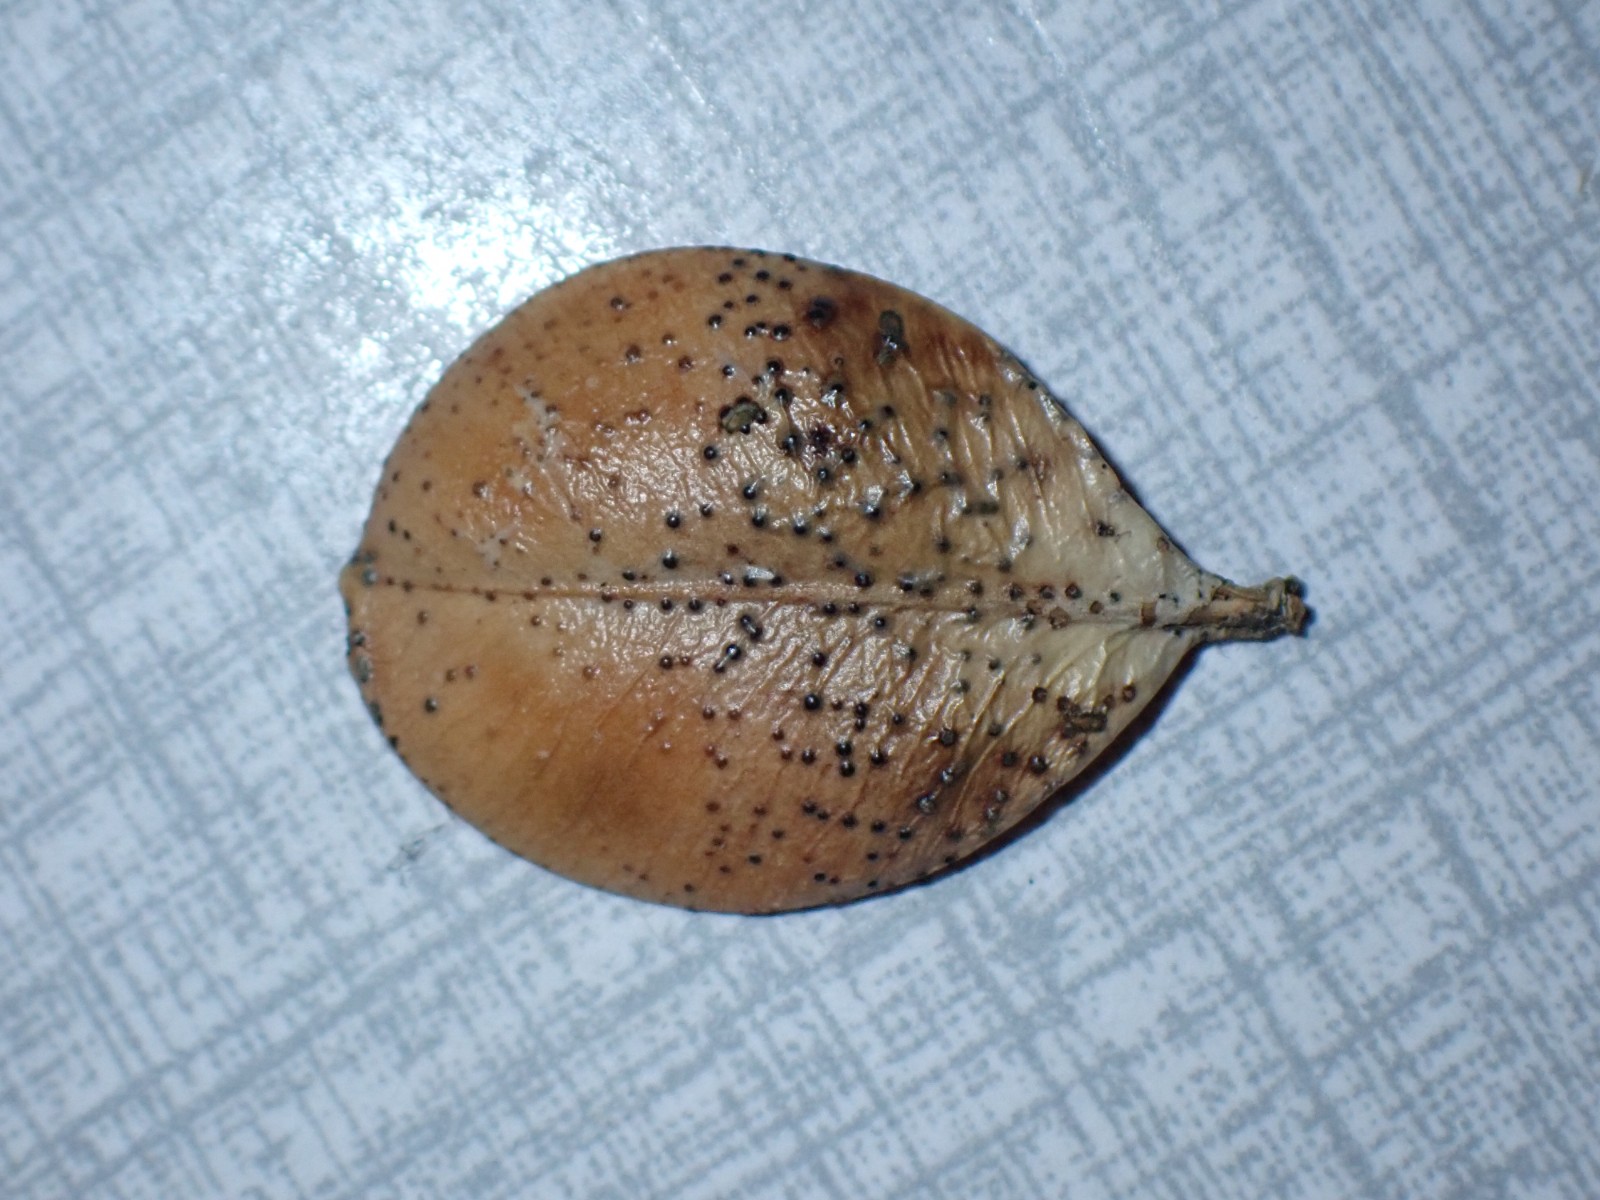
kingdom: Fungi
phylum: Ascomycota
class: Sordariomycetes
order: Diaporthales
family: Diaporthaceae
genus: Diaporthe
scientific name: Diaporthe stictica
